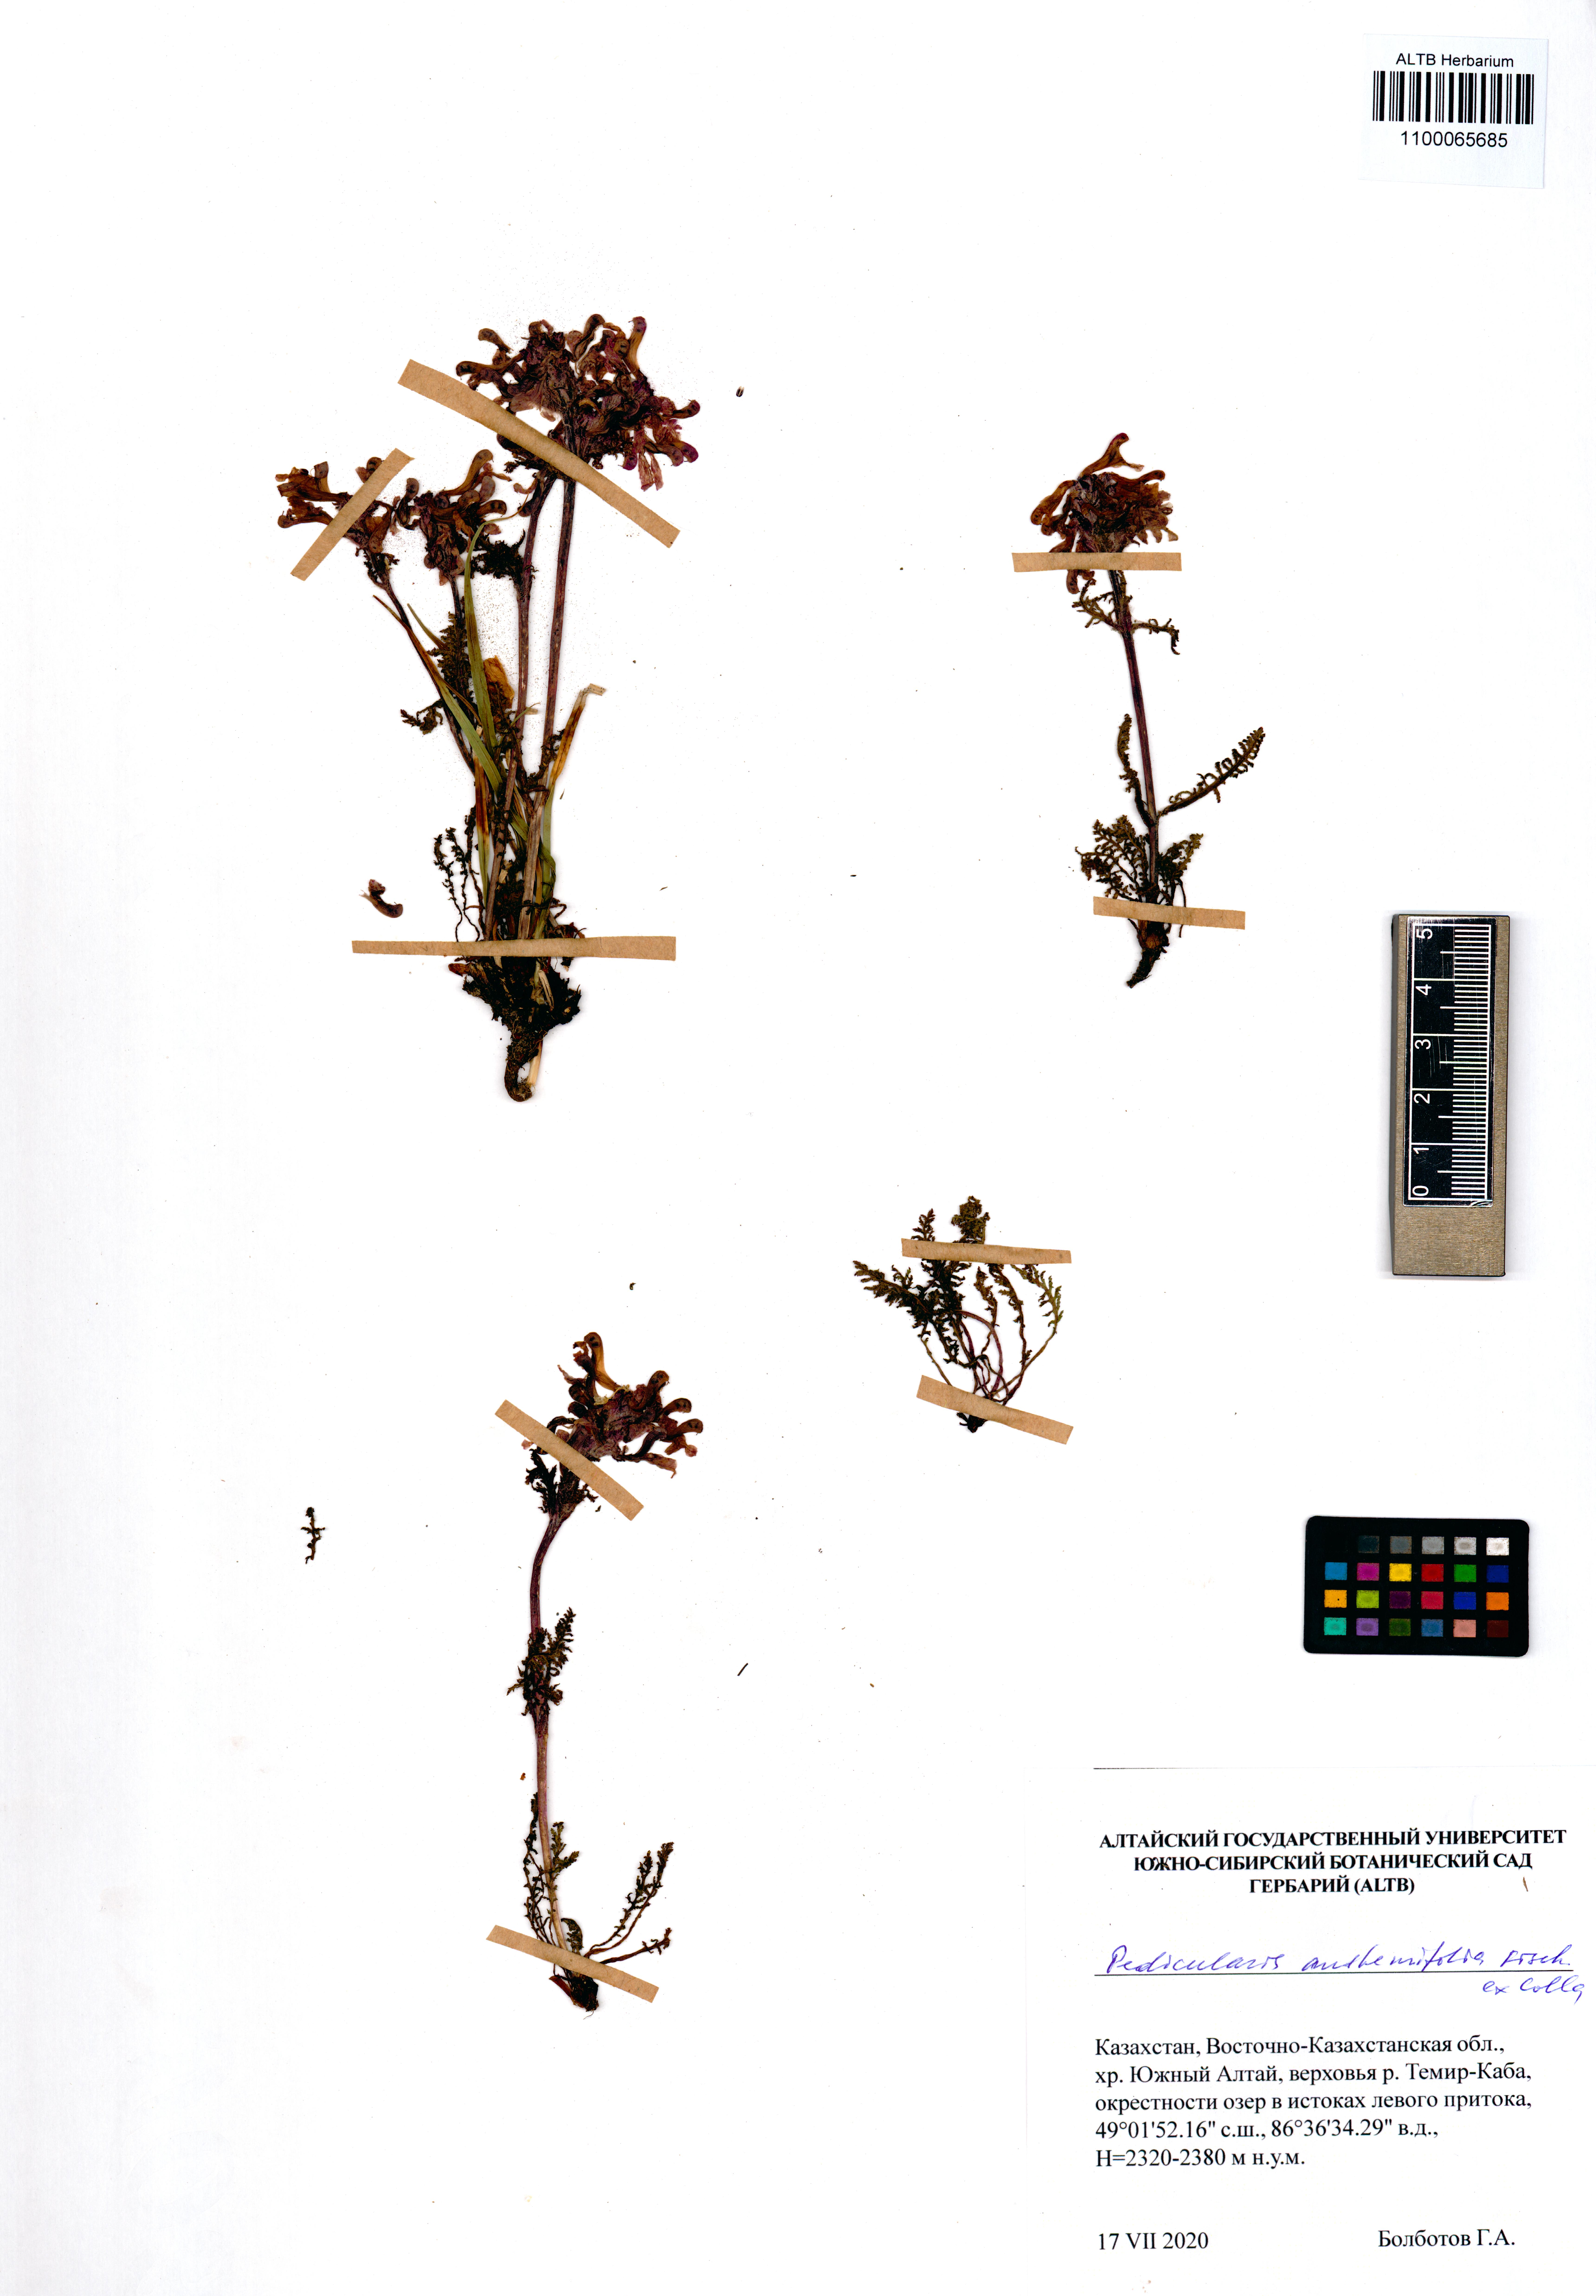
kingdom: Plantae
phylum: Tracheophyta
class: Magnoliopsida
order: Lamiales
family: Orobanchaceae
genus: Pedicularis
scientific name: Pedicularis anthemifolia
